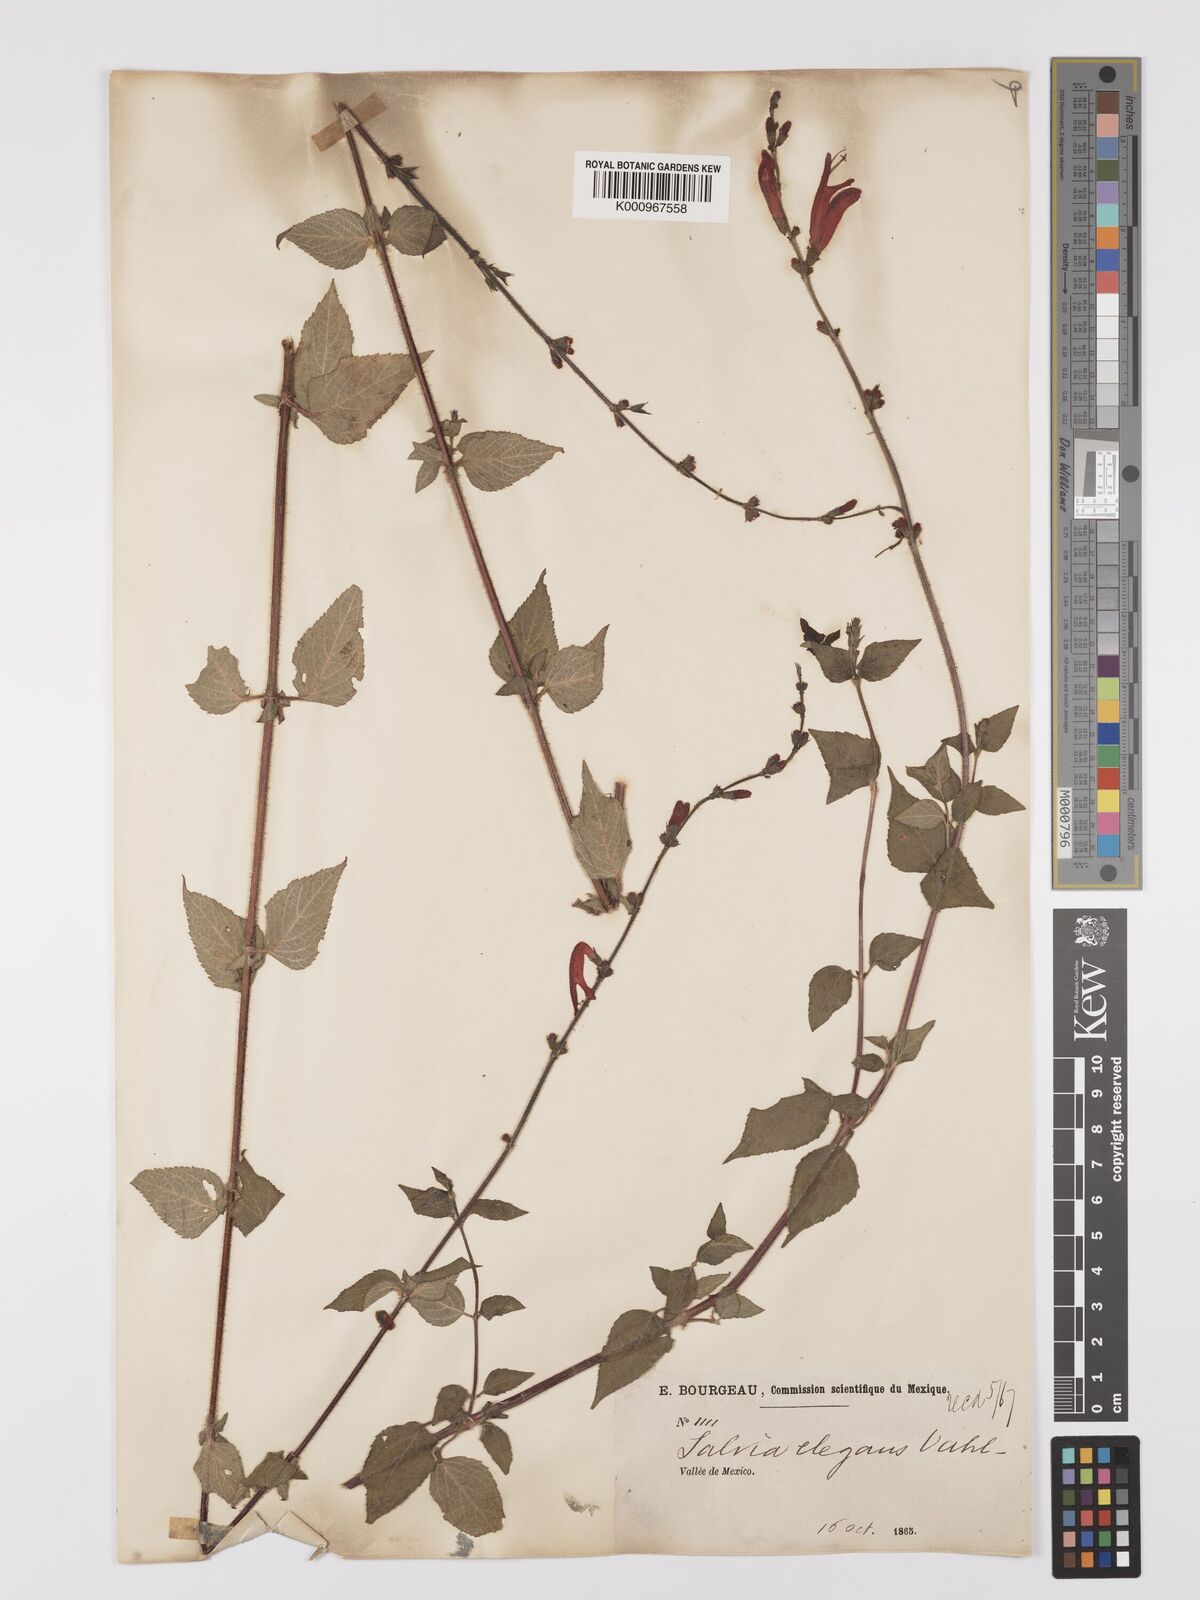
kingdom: Plantae
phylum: Tracheophyta
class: Magnoliopsida
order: Lamiales
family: Lamiaceae
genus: Salvia
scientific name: Salvia elegans
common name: Pineapple sage
